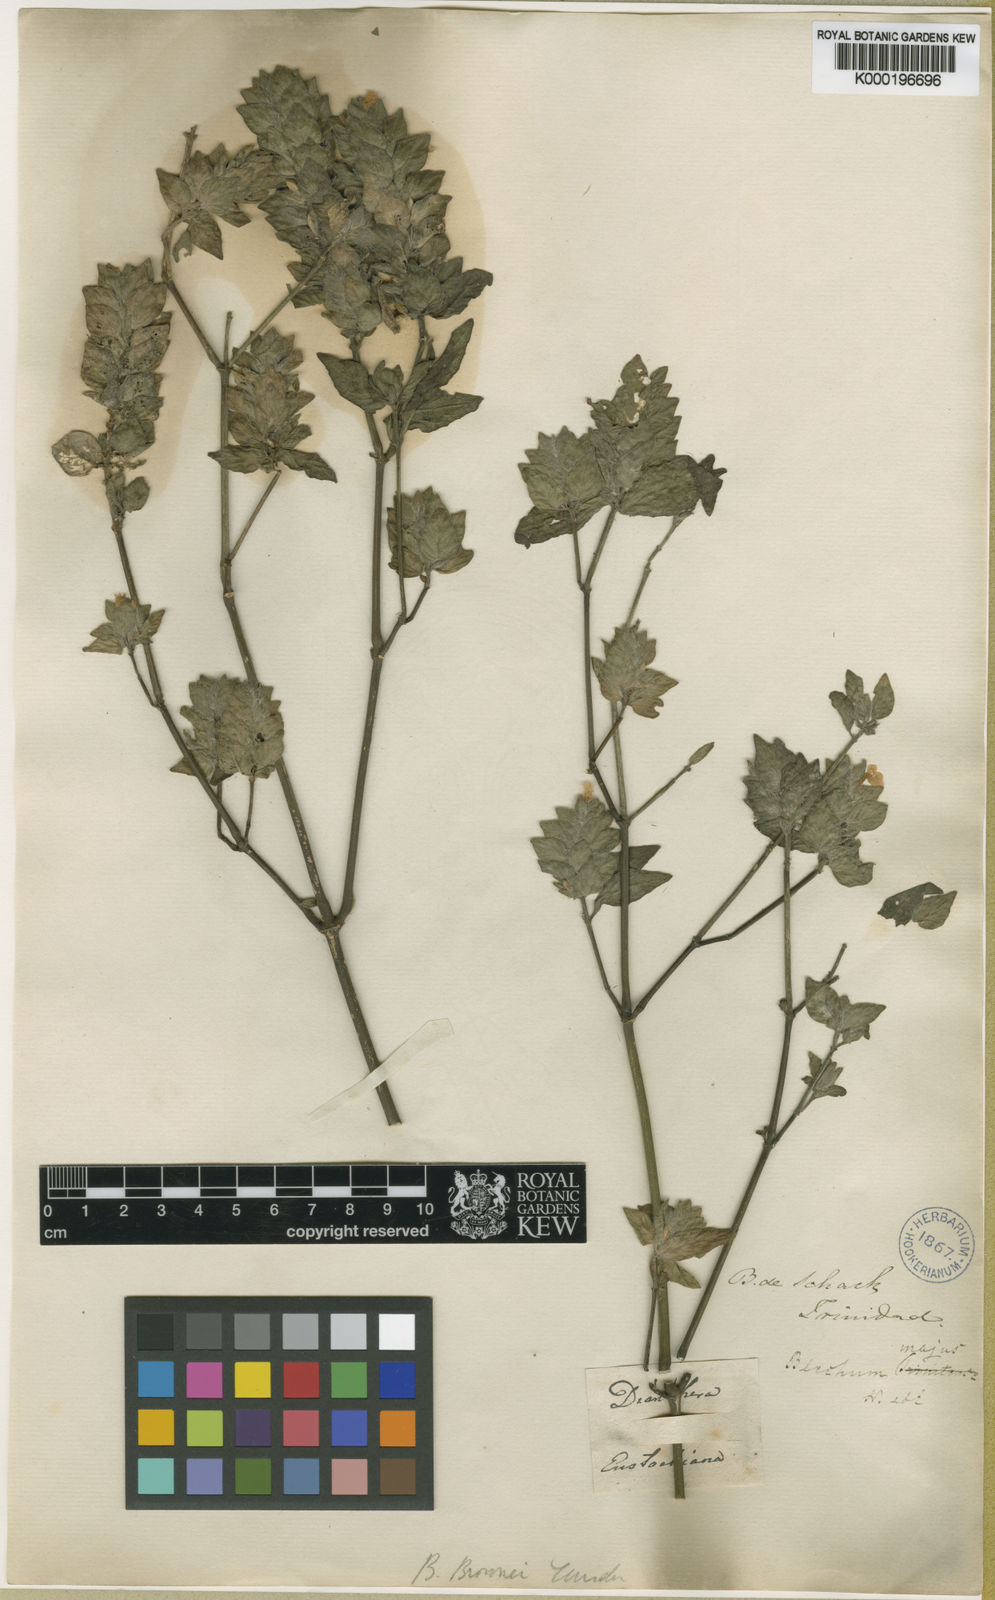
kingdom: Plantae
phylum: Tracheophyta
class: Magnoliopsida
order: Lamiales
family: Acanthaceae
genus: Ruellia
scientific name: Ruellia blechum
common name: Browne's blechum
